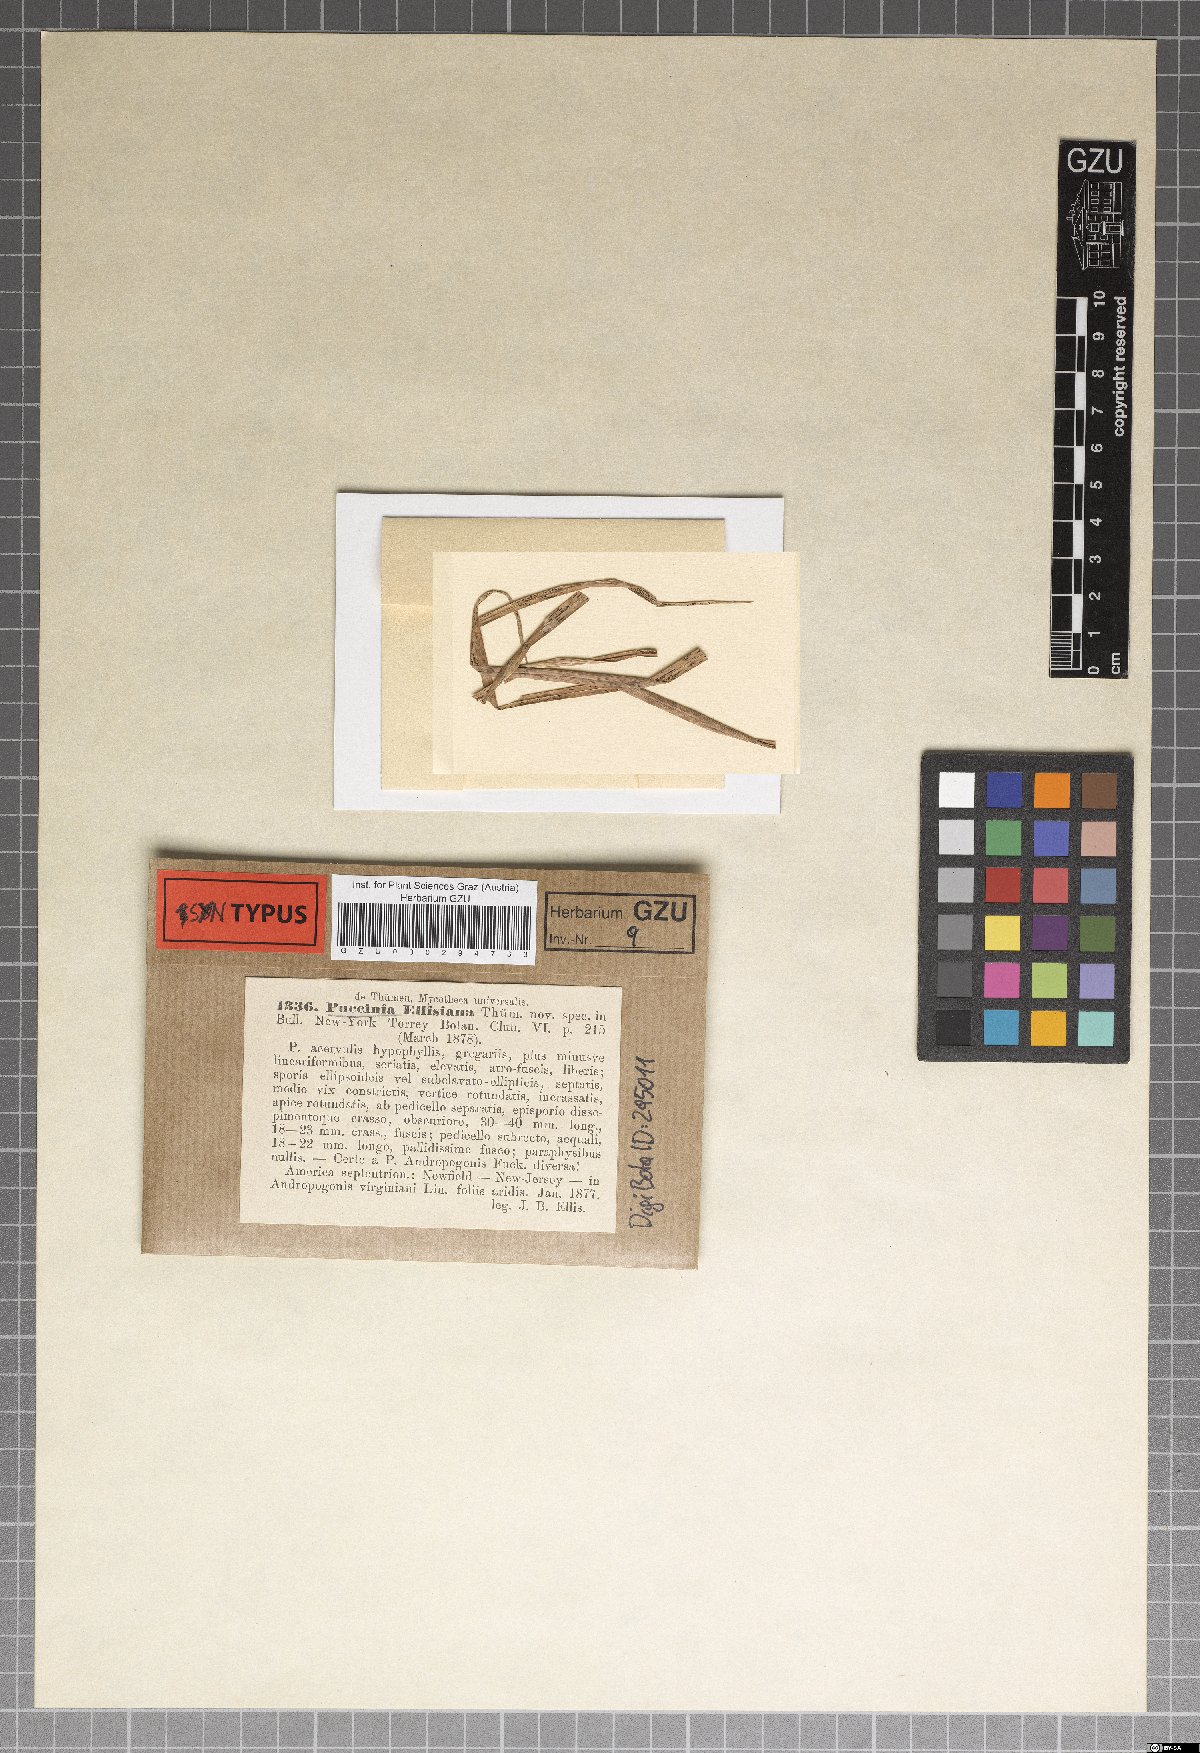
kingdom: Fungi
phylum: Basidiomycota
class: Pucciniomycetes
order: Pucciniales
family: Pucciniaceae
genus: Puccinia
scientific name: Puccinia ellisiana
